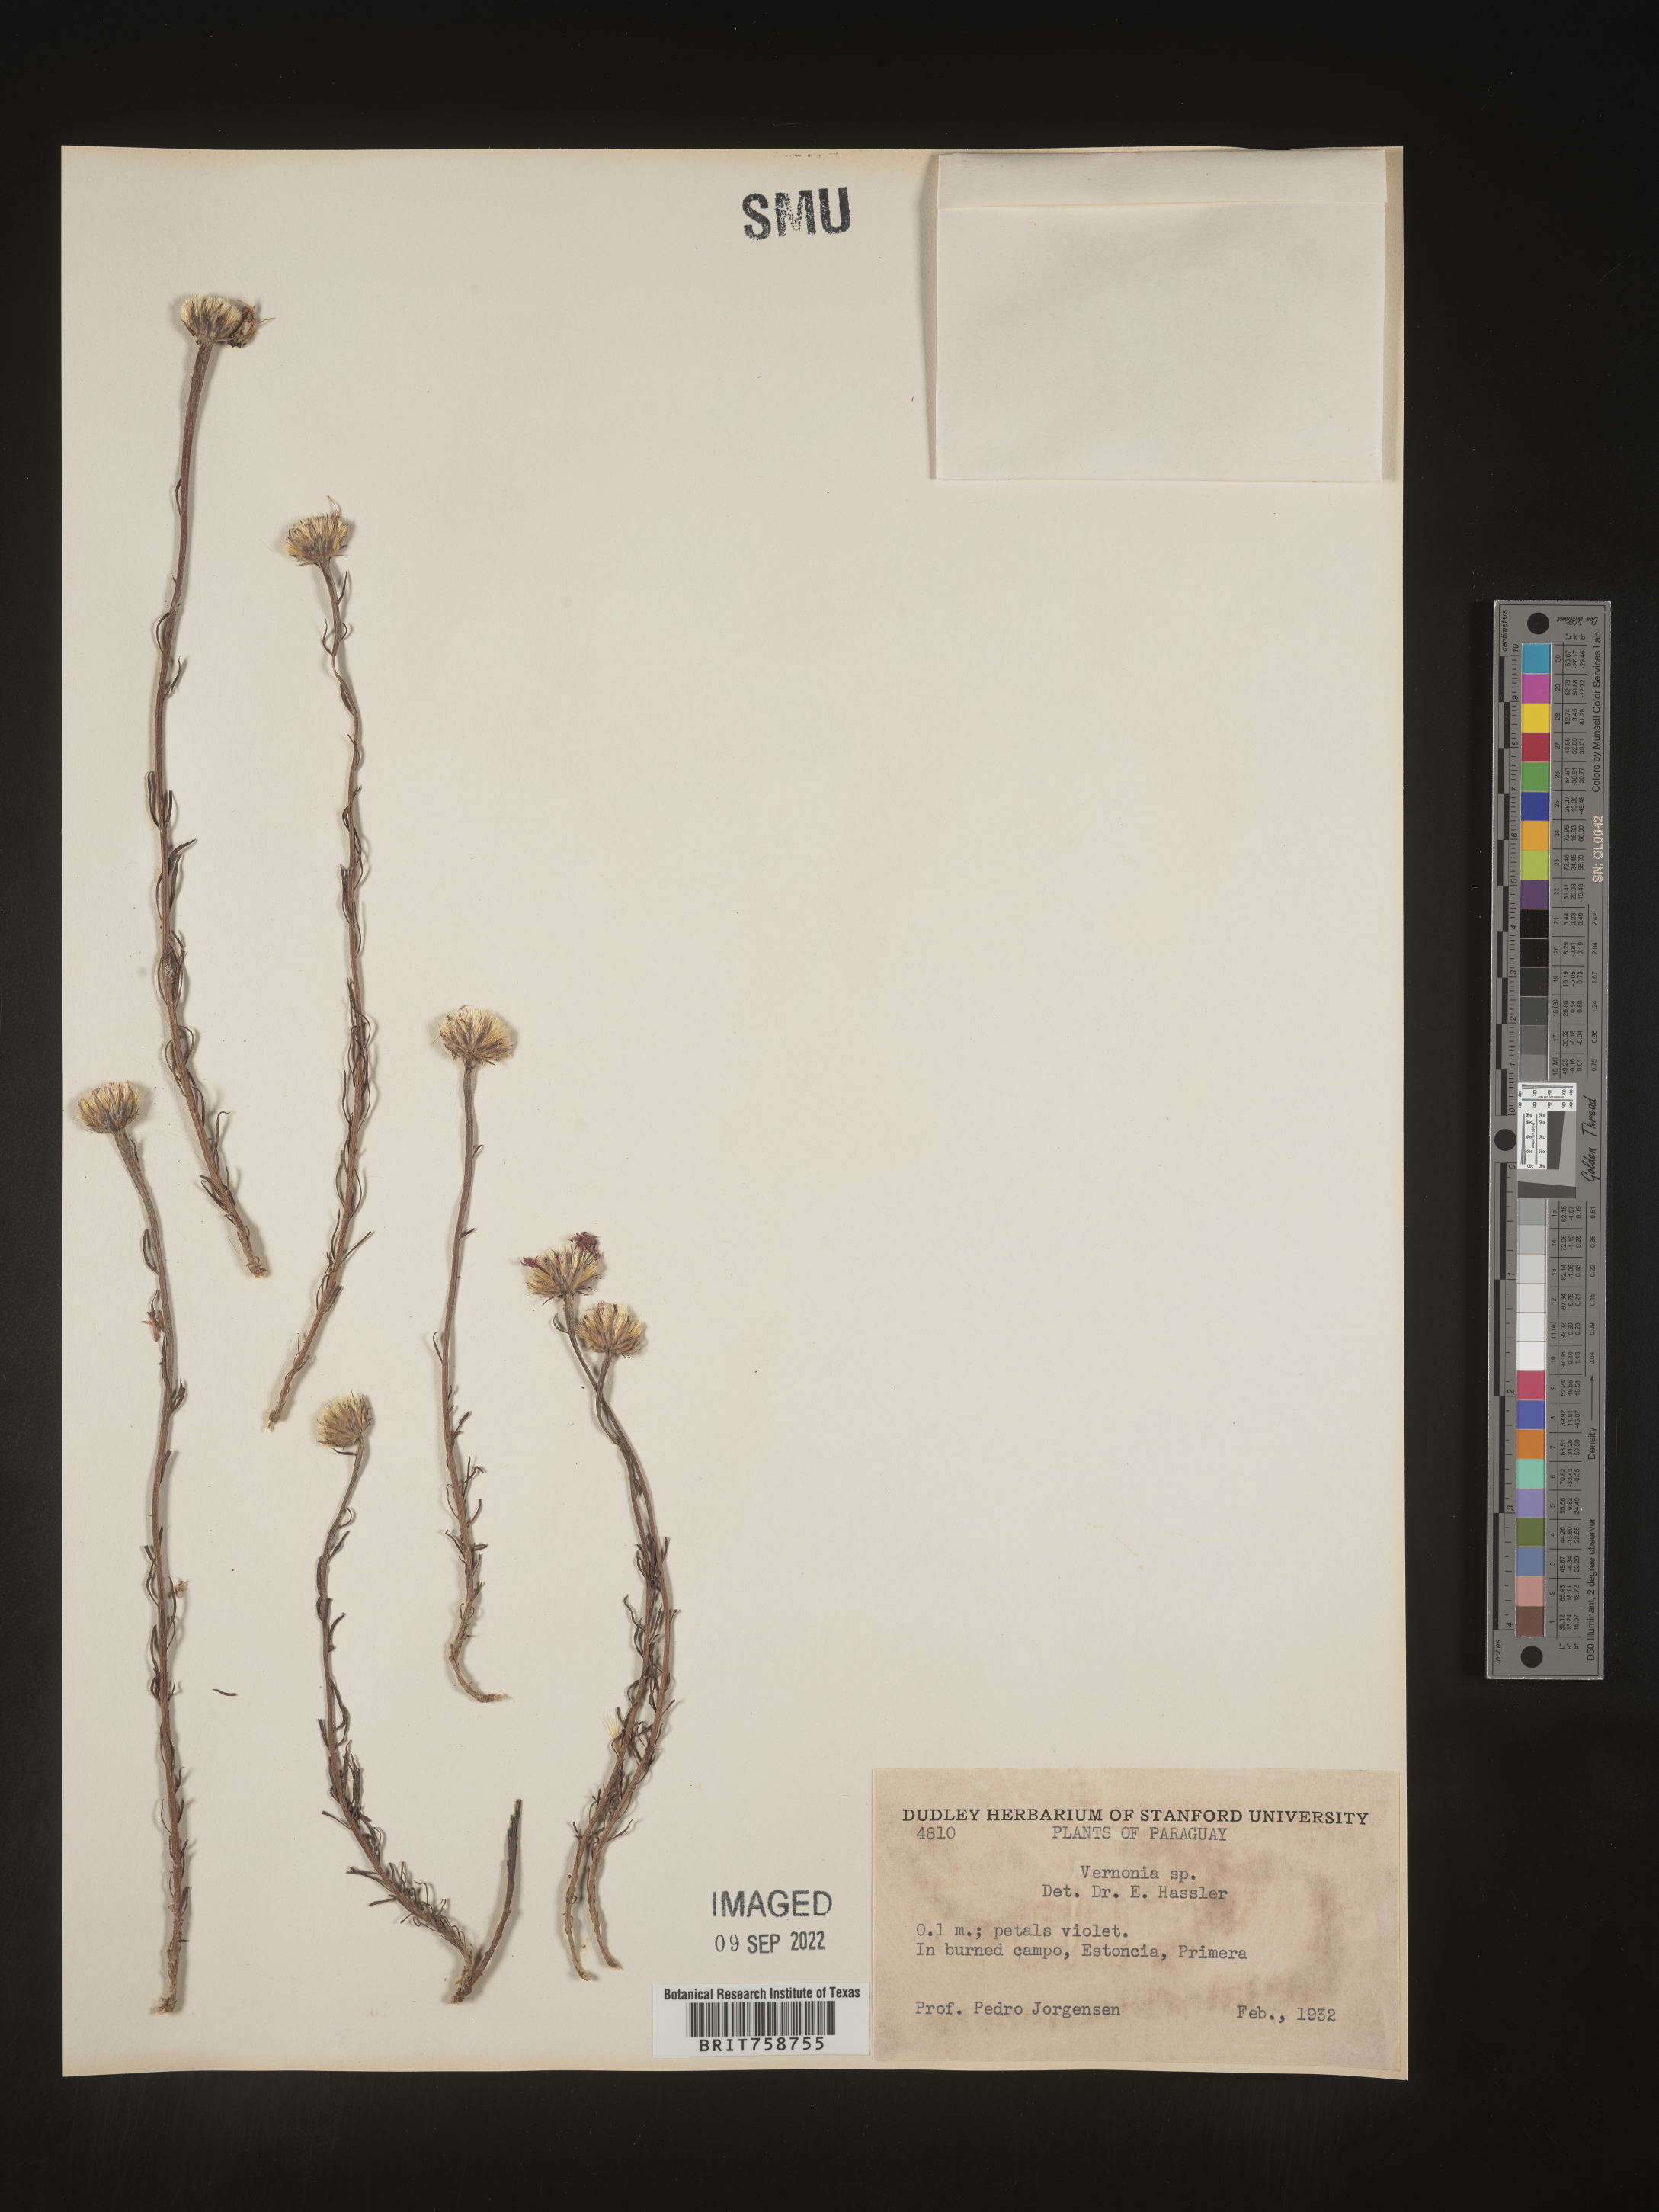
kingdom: Plantae
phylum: Tracheophyta
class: Magnoliopsida
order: Asterales
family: Asteraceae
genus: Vernonia
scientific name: Vernonia
